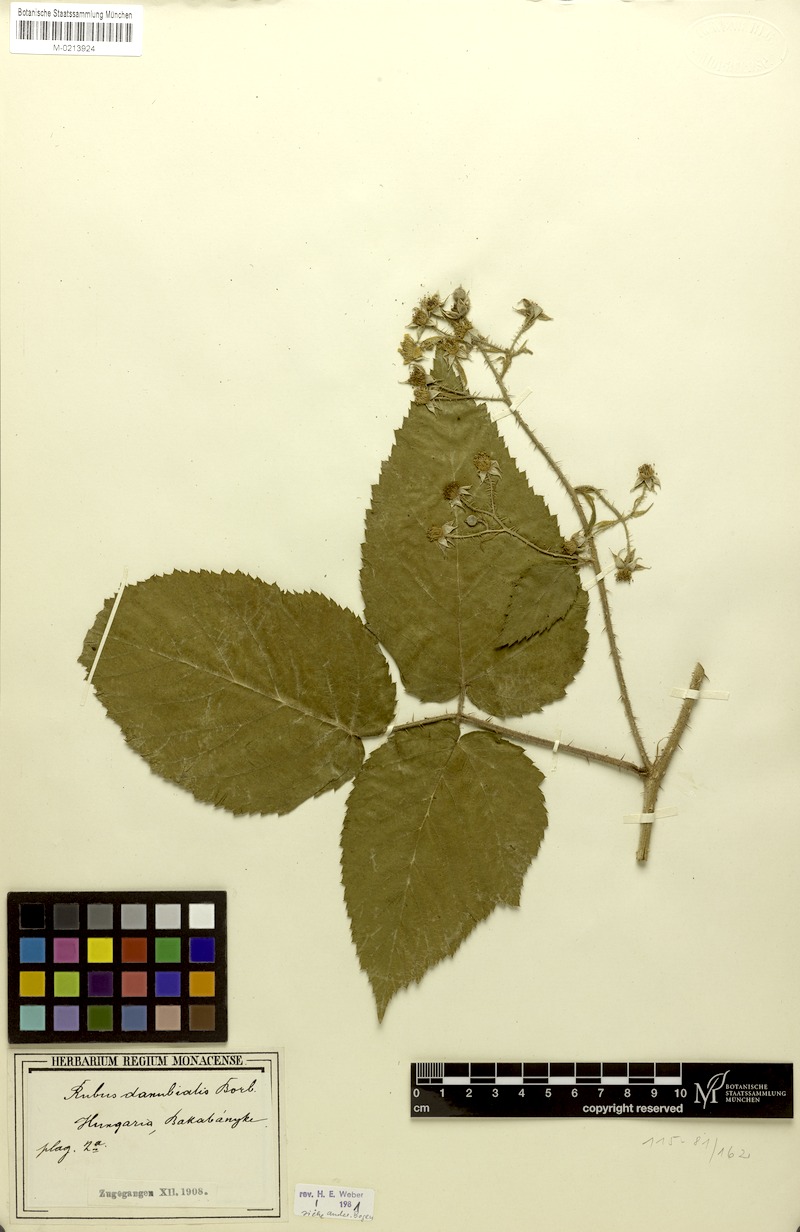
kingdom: Plantae
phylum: Tracheophyta
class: Magnoliopsida
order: Rosales
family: Rosaceae
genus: Rubus
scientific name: Rubus aculeolatus
